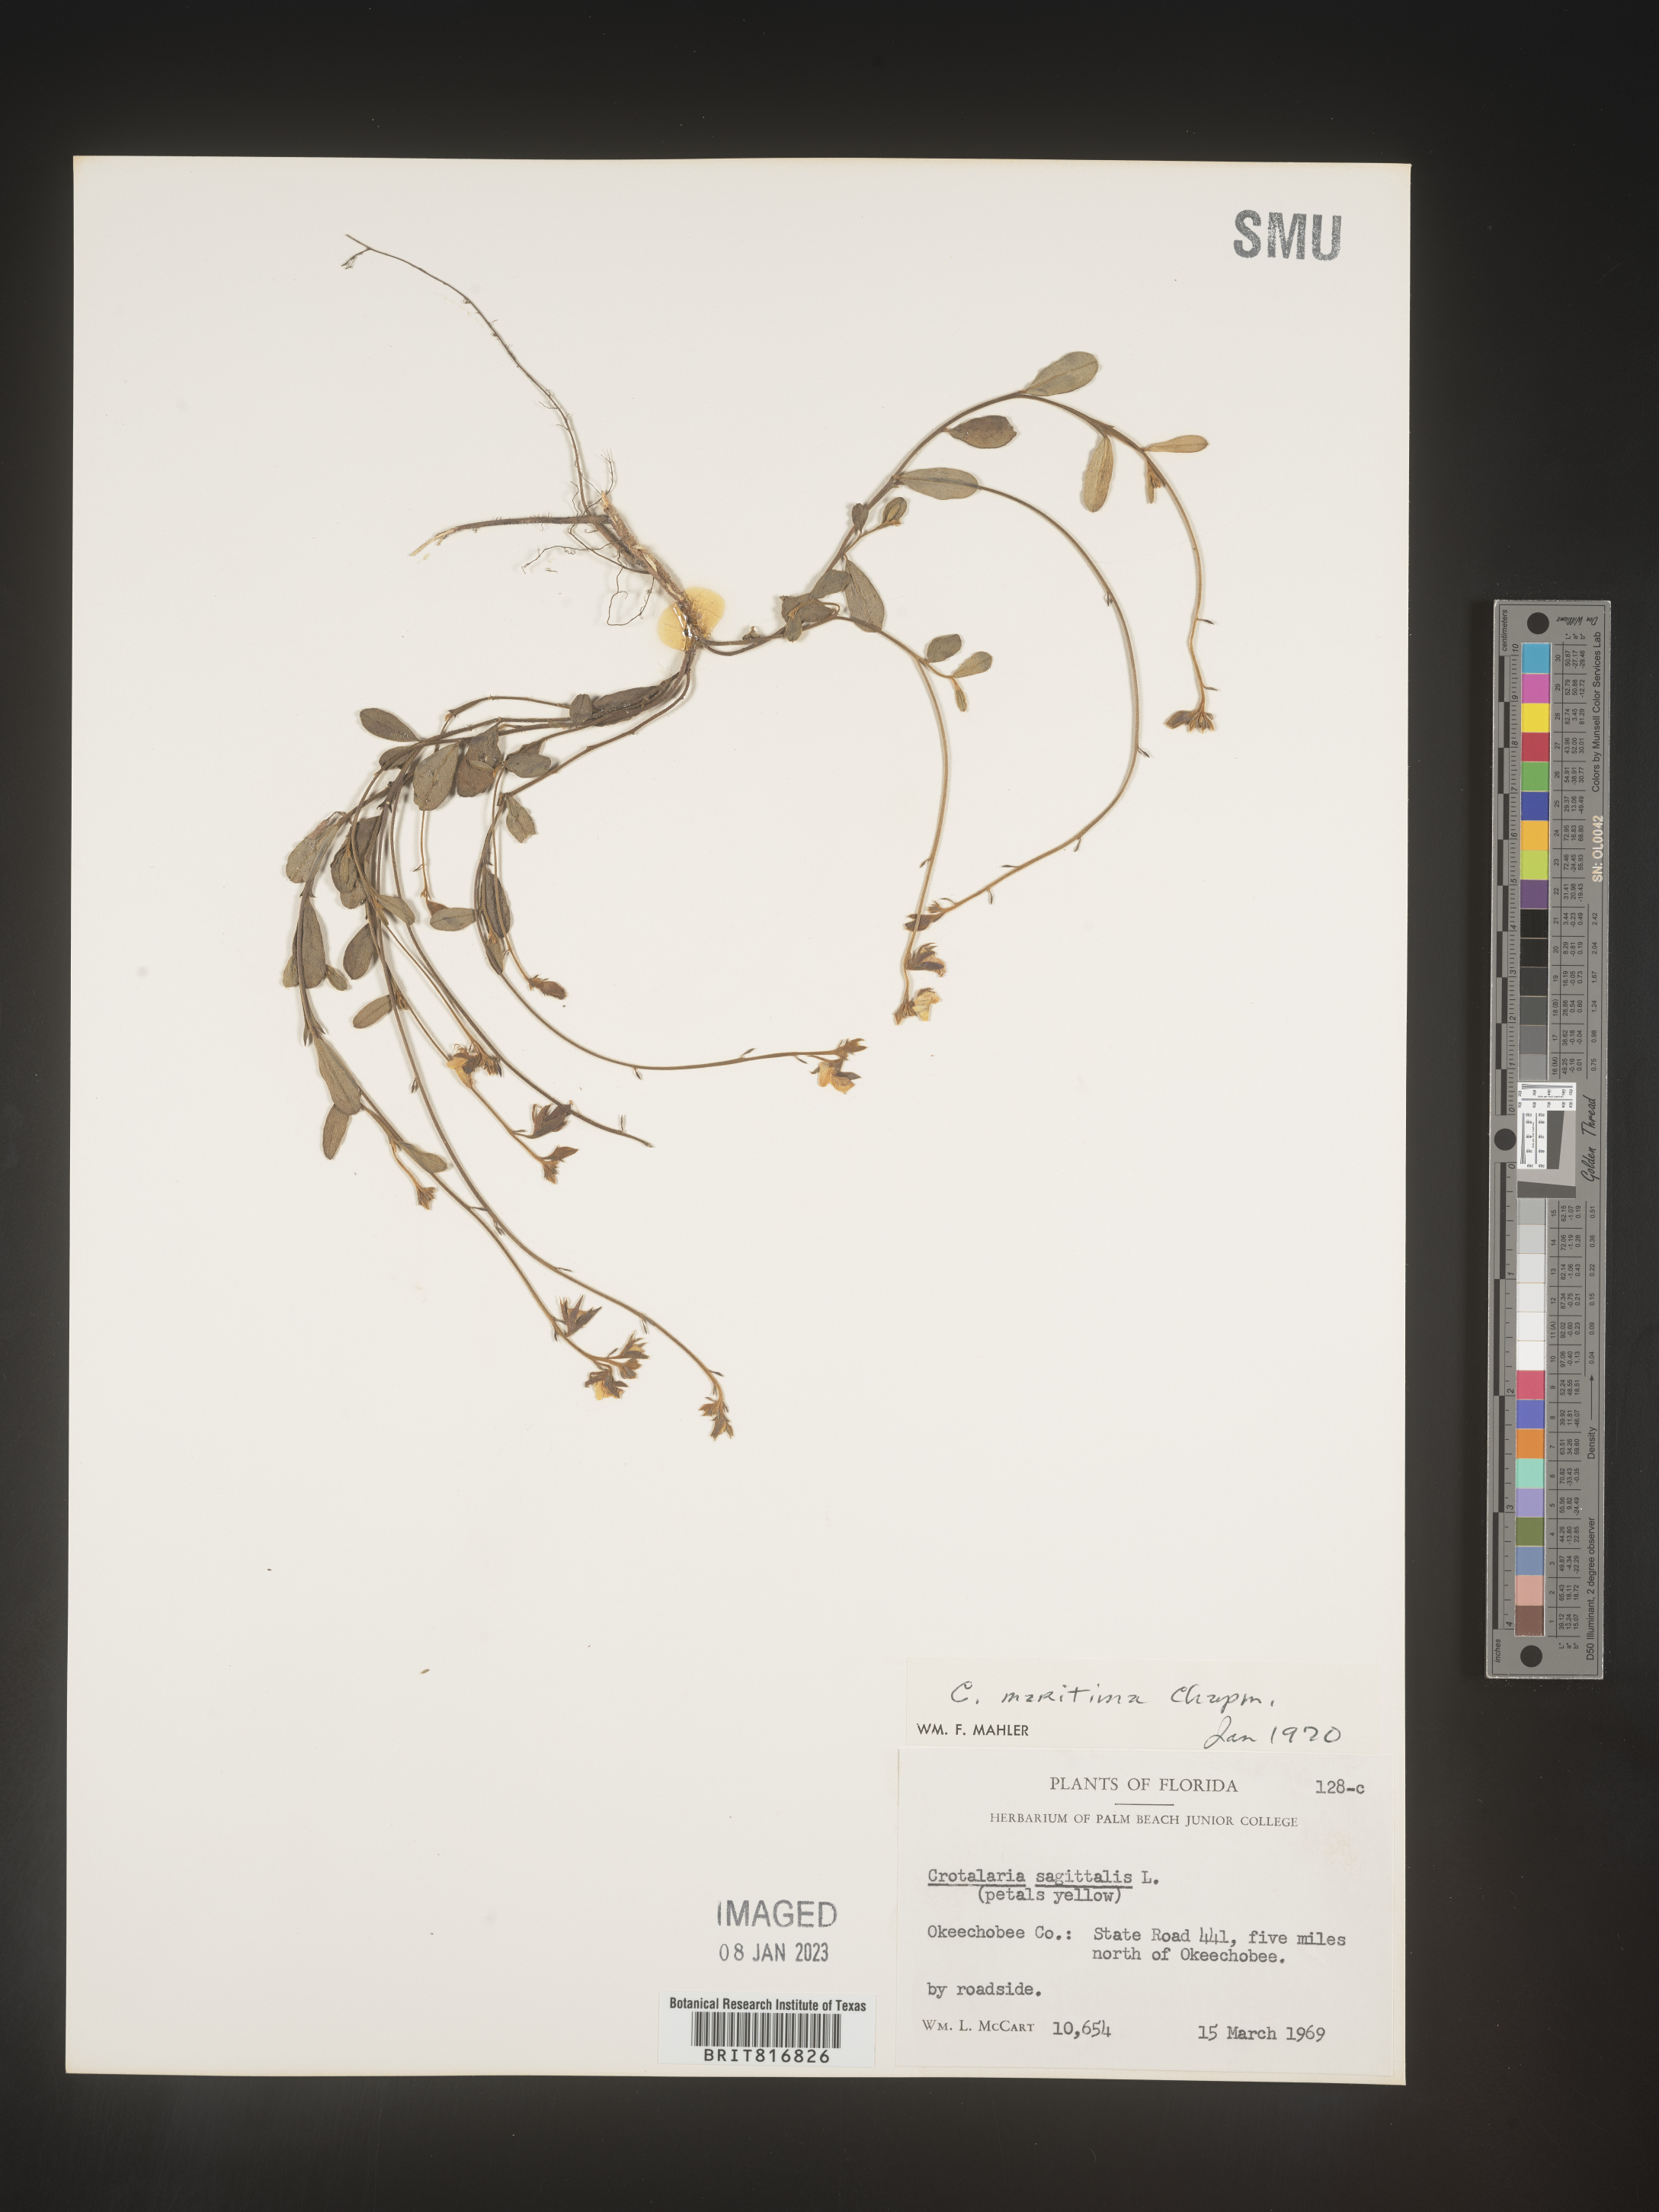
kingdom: Plantae
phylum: Tracheophyta
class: Magnoliopsida
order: Fabales
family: Fabaceae
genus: Crotalaria
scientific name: Crotalaria rotundifolia
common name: Prostrate rattlebox
